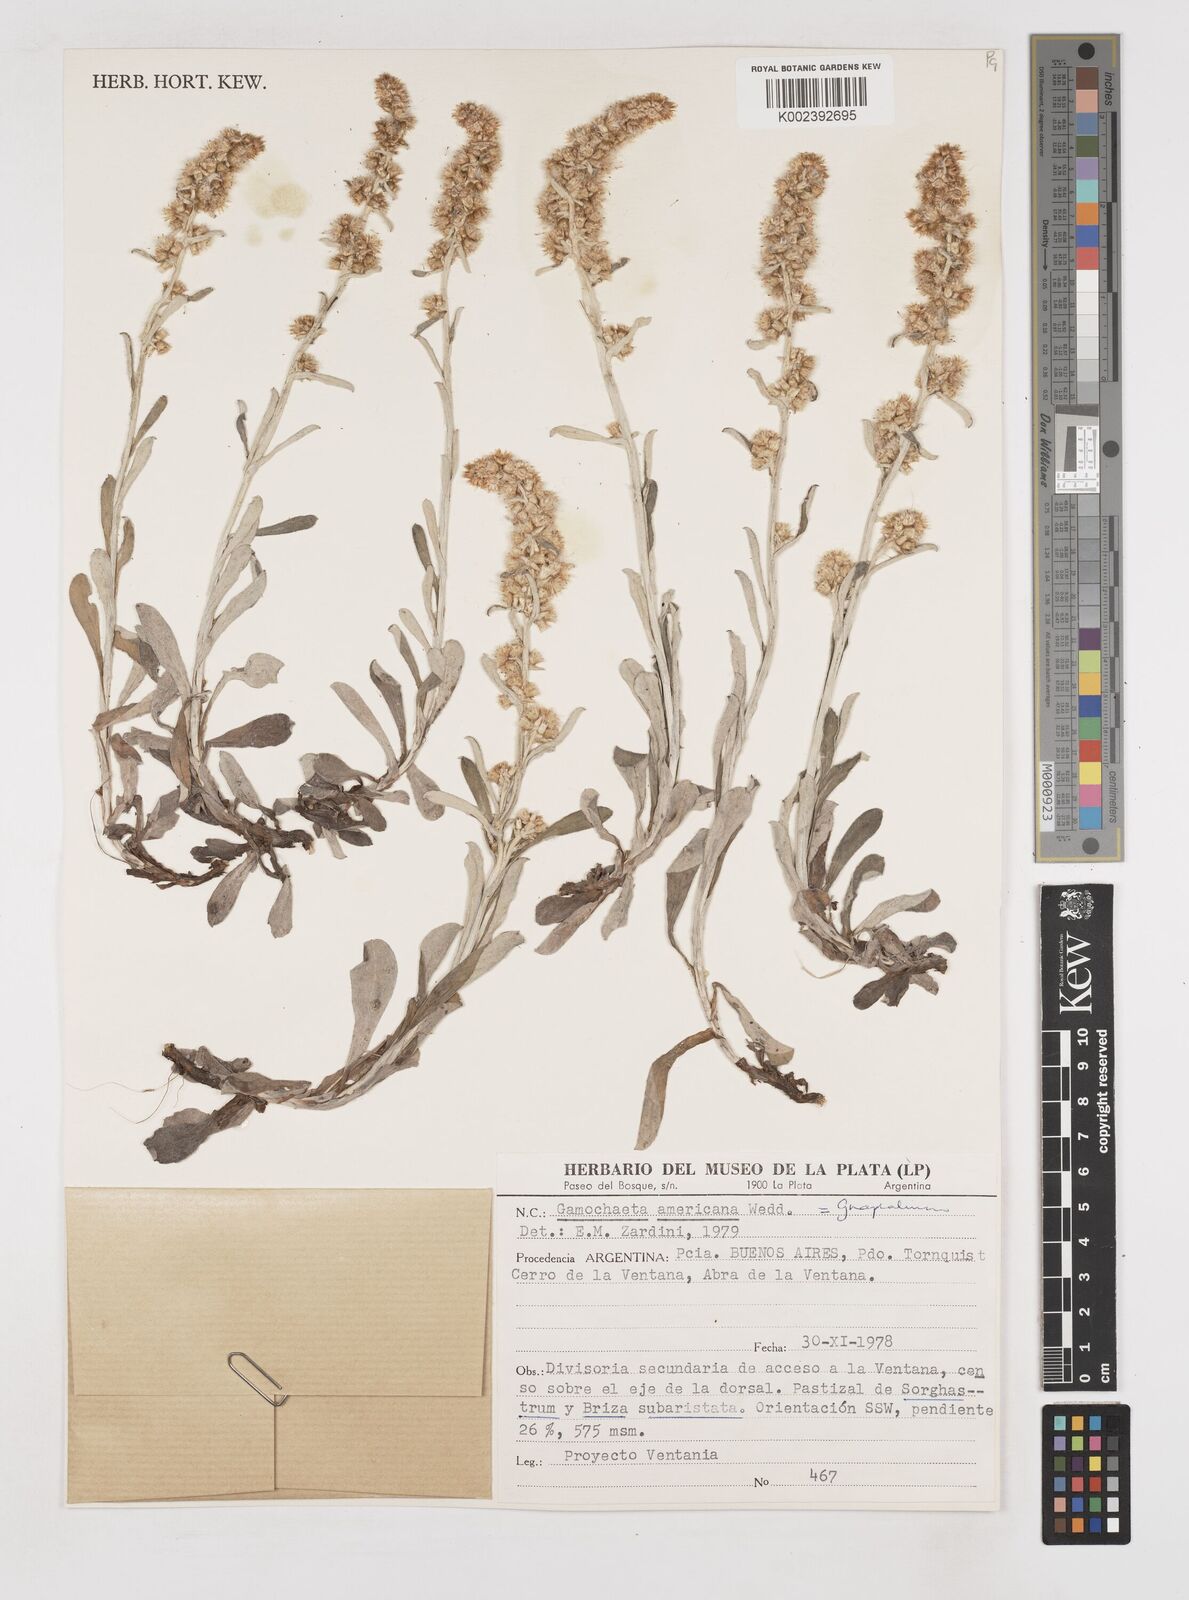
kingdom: Plantae
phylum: Tracheophyta
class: Magnoliopsida
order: Asterales
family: Asteraceae
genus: Anaphalis
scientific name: Anaphalis margaritacea
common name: Pearly everlasting
